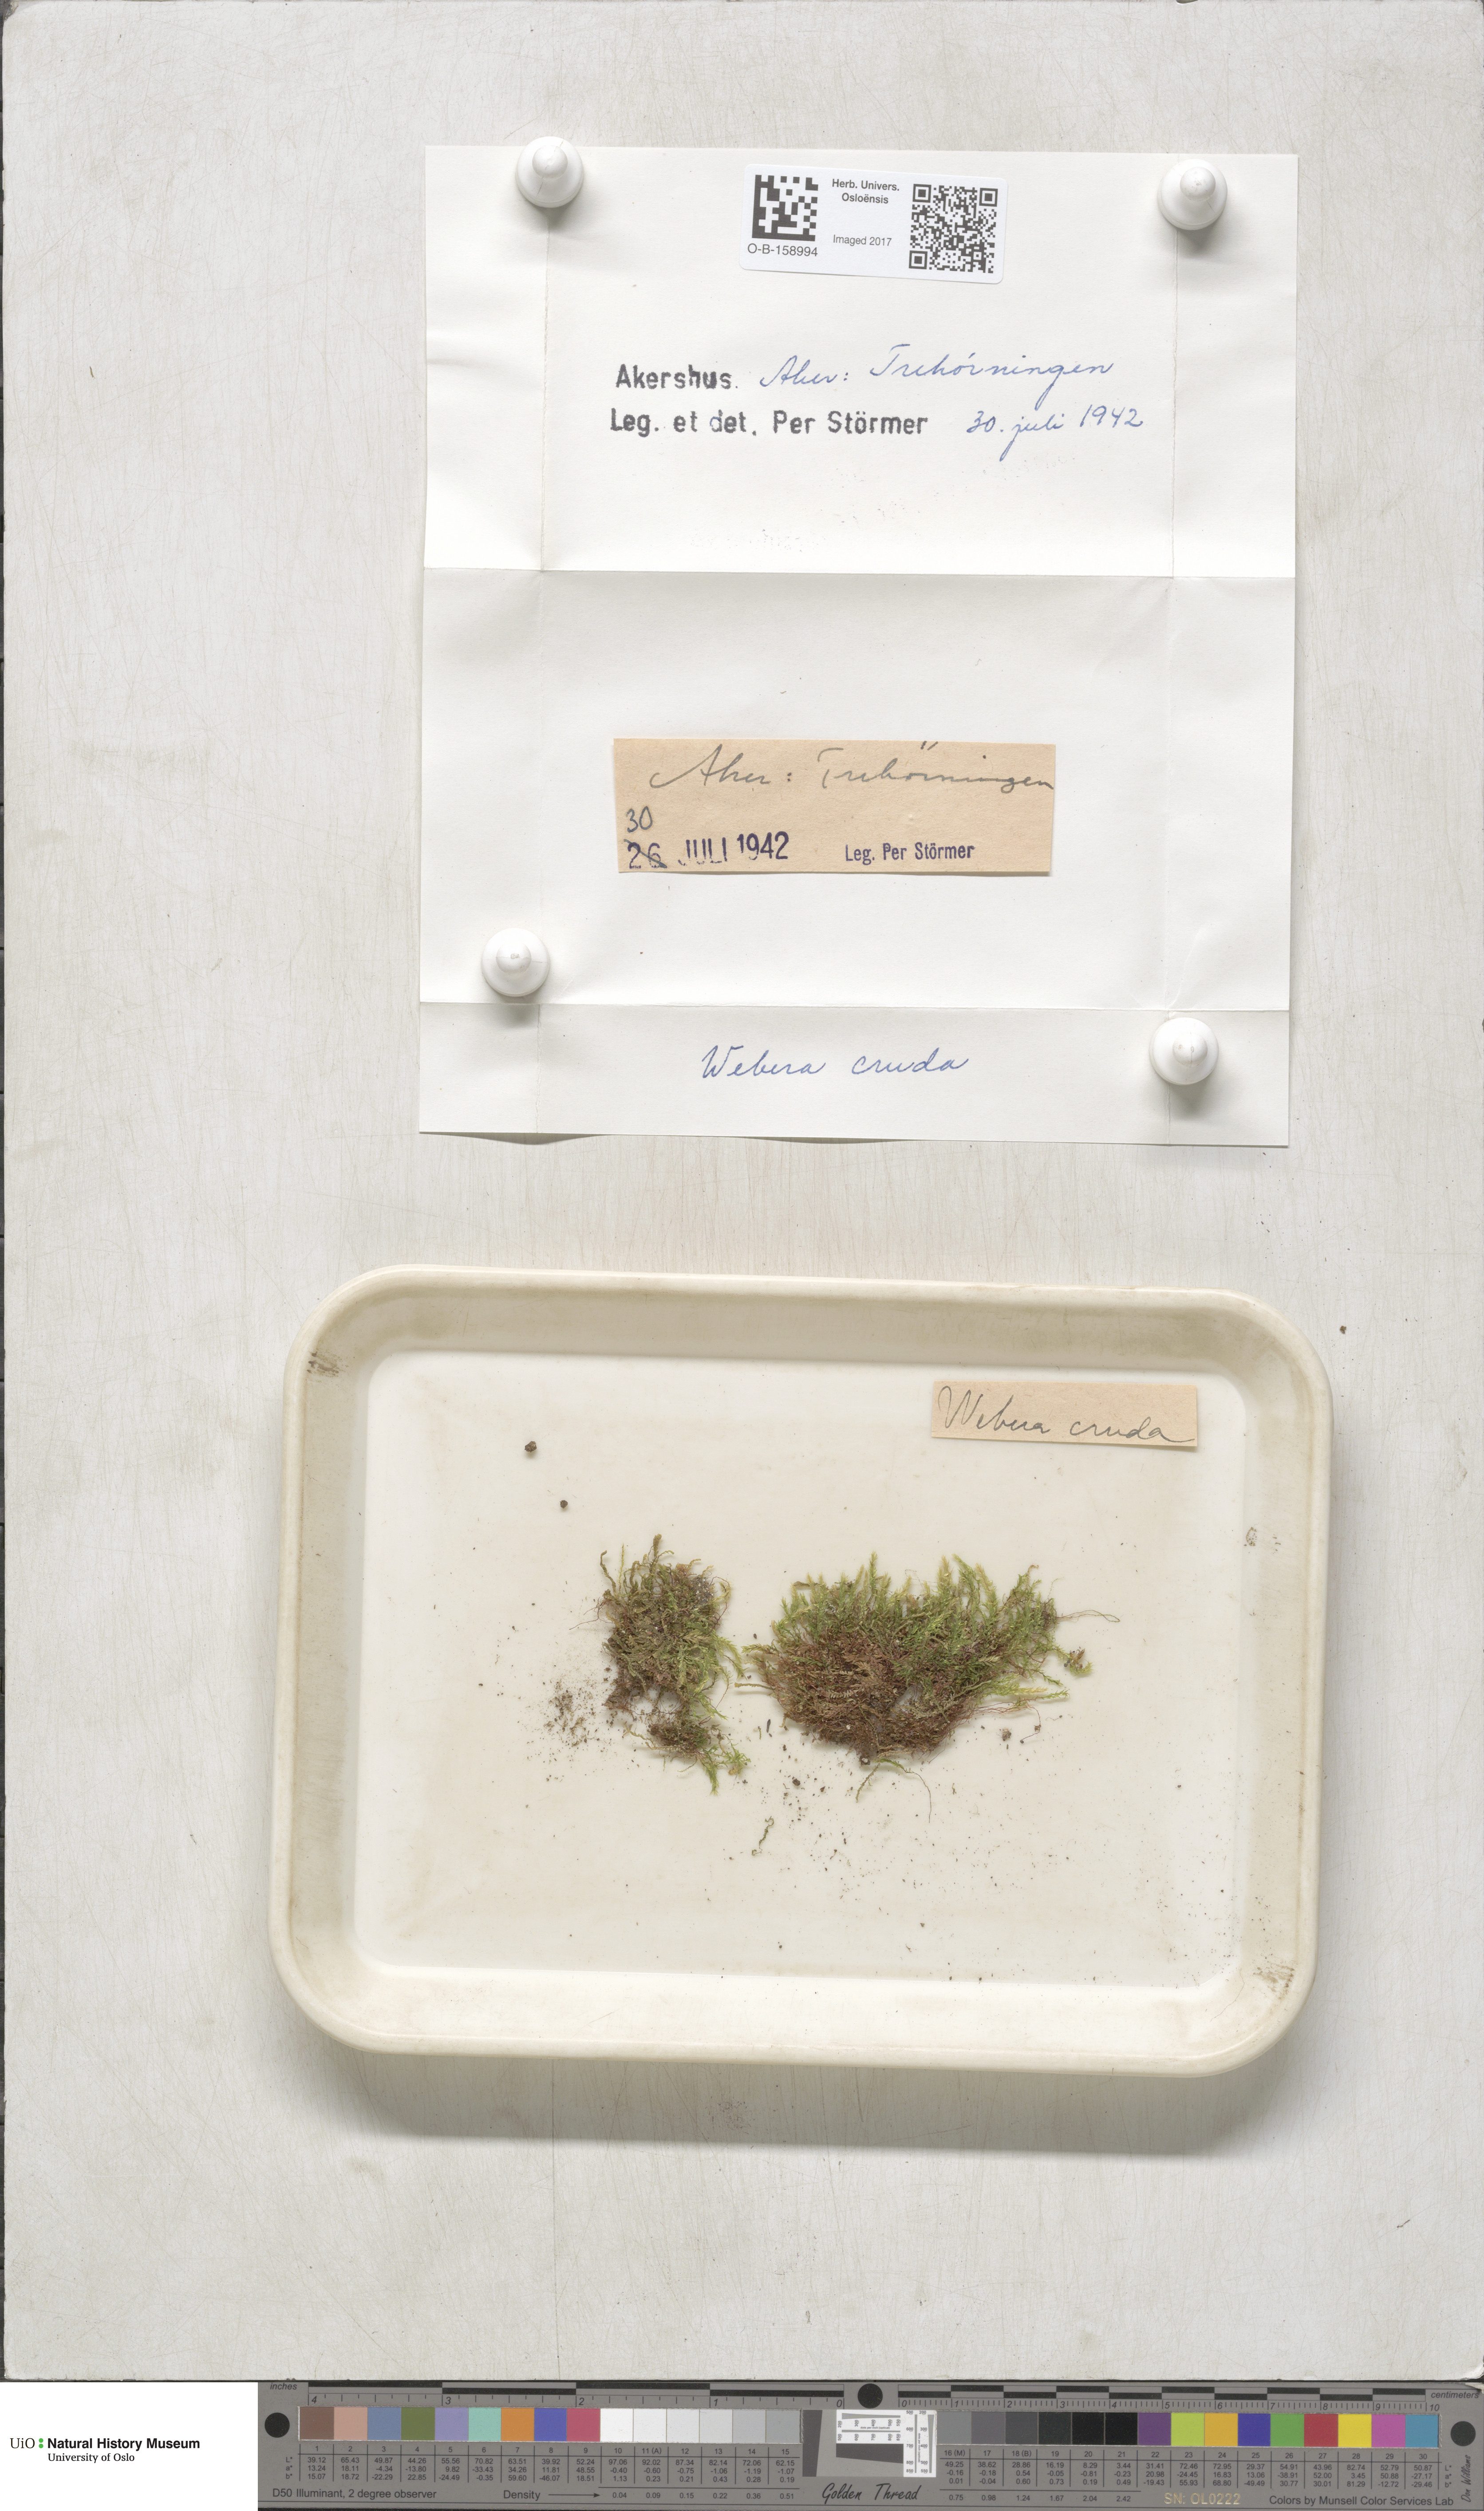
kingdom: Plantae
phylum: Bryophyta
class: Bryopsida
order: Bryales
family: Mniaceae
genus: Pohlia
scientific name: Pohlia cruda
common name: Opal nodding moss
